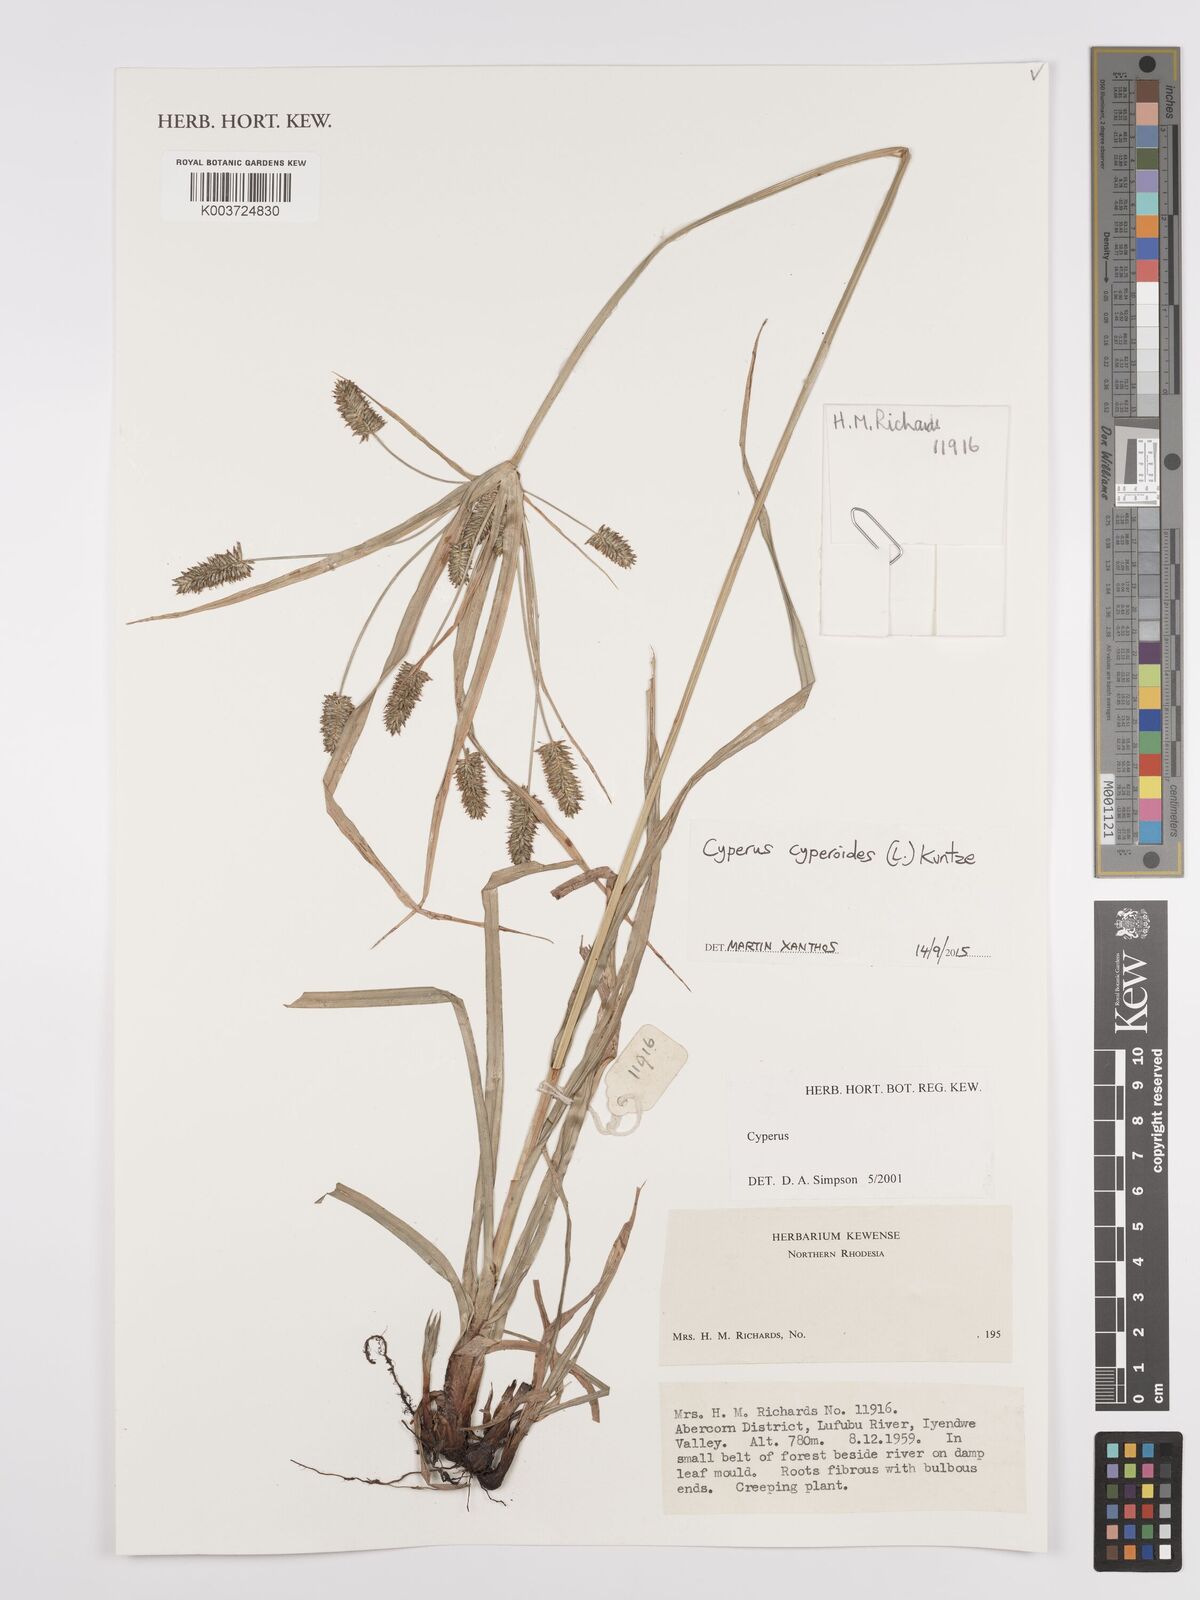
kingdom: Plantae
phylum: Tracheophyta
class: Liliopsida
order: Poales
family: Cyperaceae
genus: Cyperus
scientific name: Cyperus cyperoides
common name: Pacific island flat sedge
